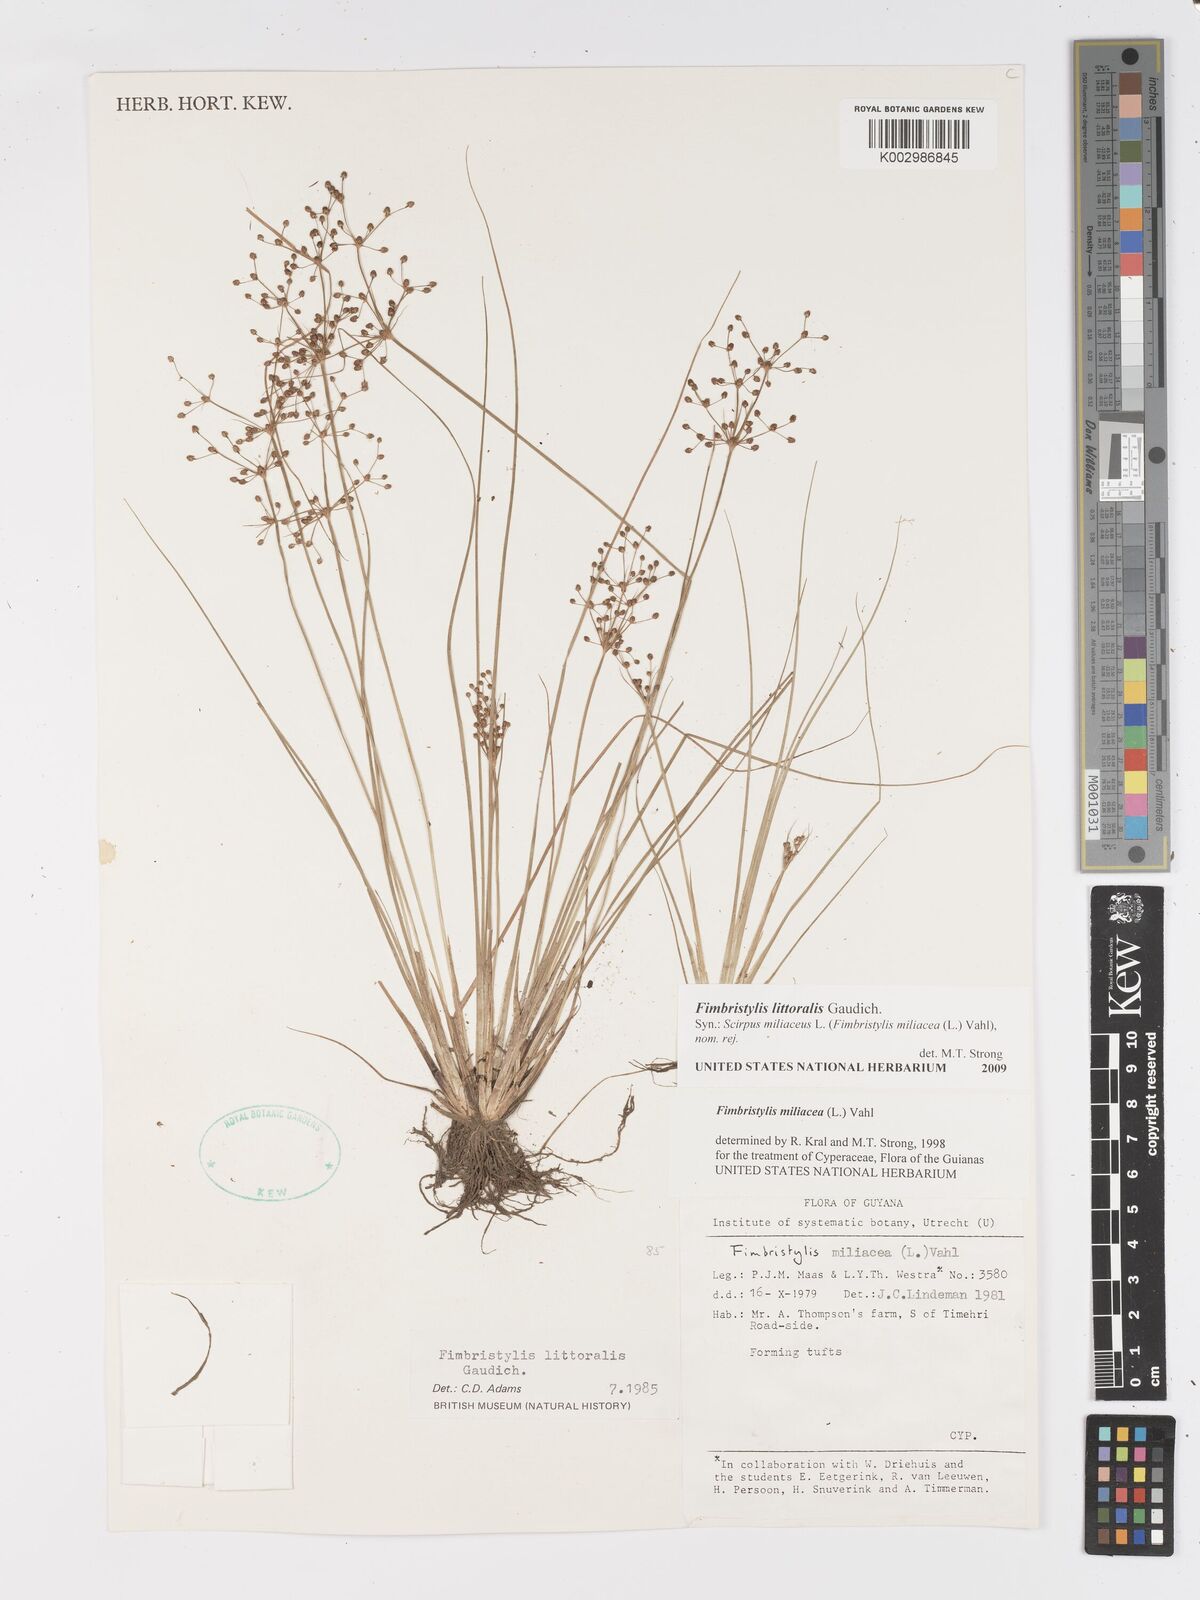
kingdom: Plantae
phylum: Tracheophyta
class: Liliopsida
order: Poales
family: Cyperaceae
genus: Fimbristylis
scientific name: Fimbristylis littoralis
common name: Fimbry
